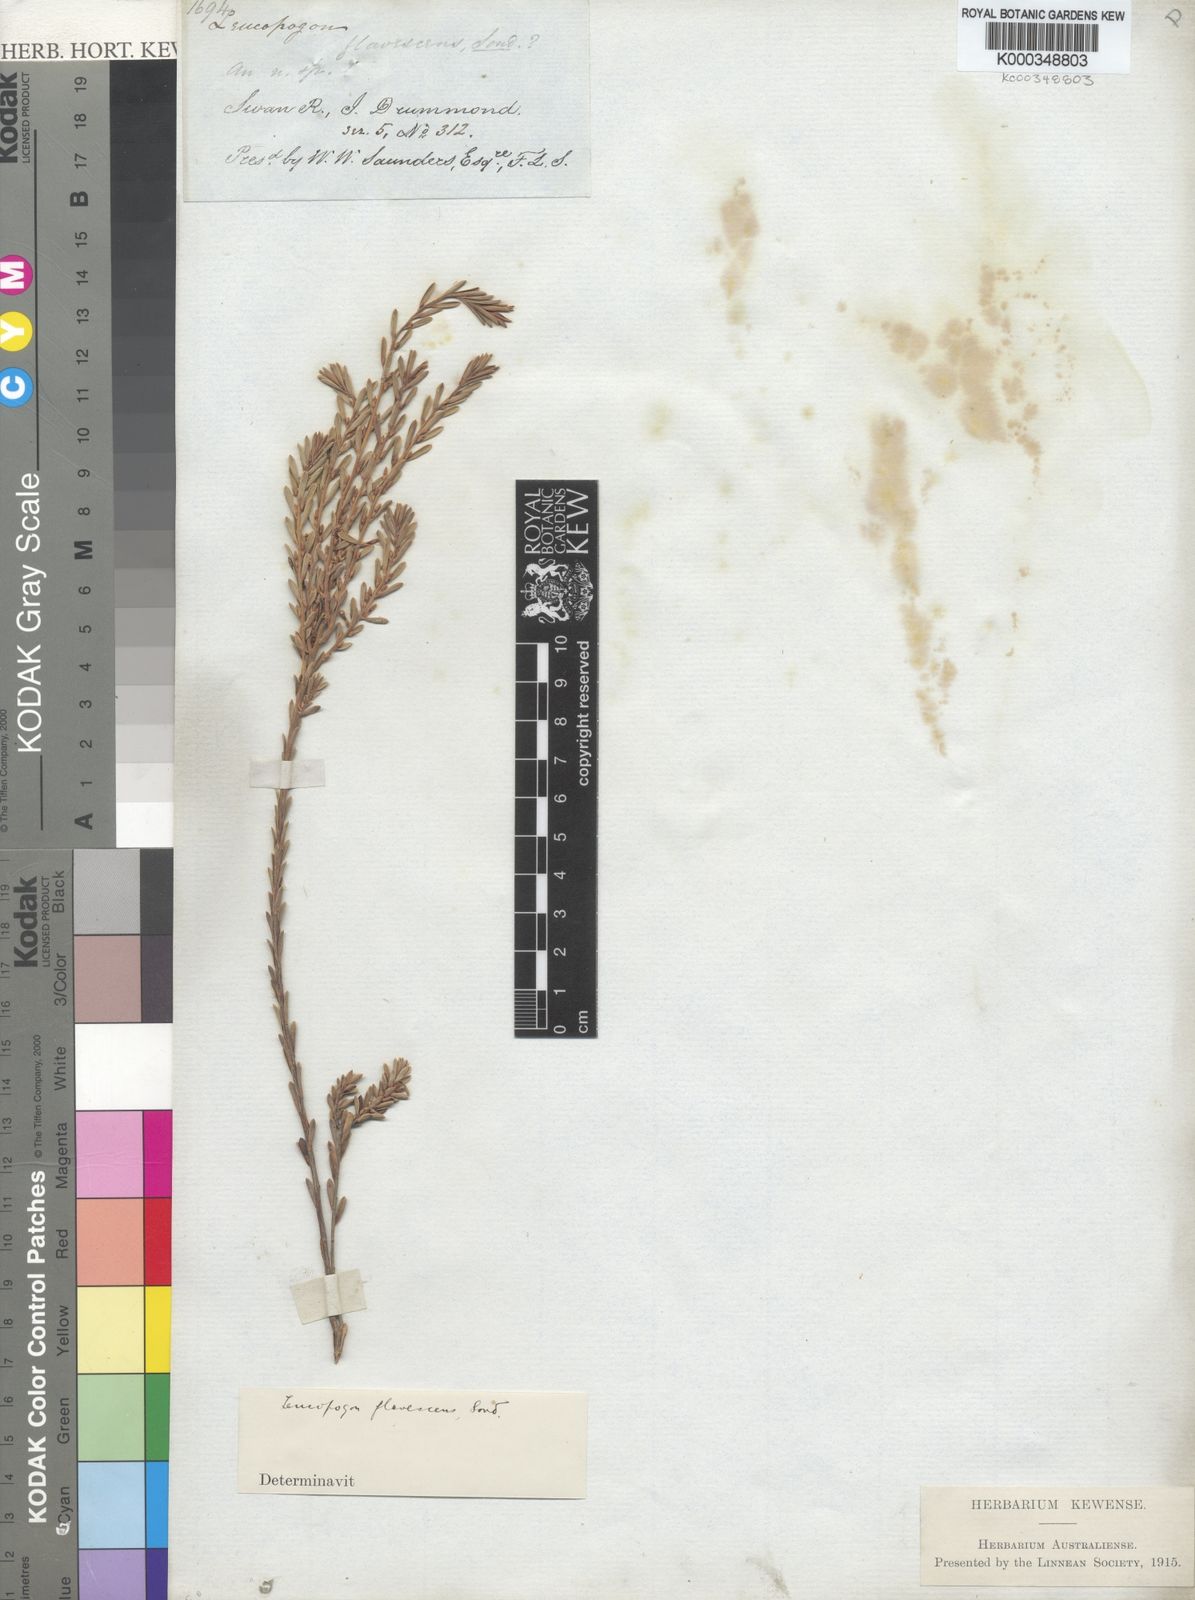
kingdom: Plantae
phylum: Tracheophyta
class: Magnoliopsida
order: Ericales
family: Ericaceae
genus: Styphelia
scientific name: Styphelia flavescens
